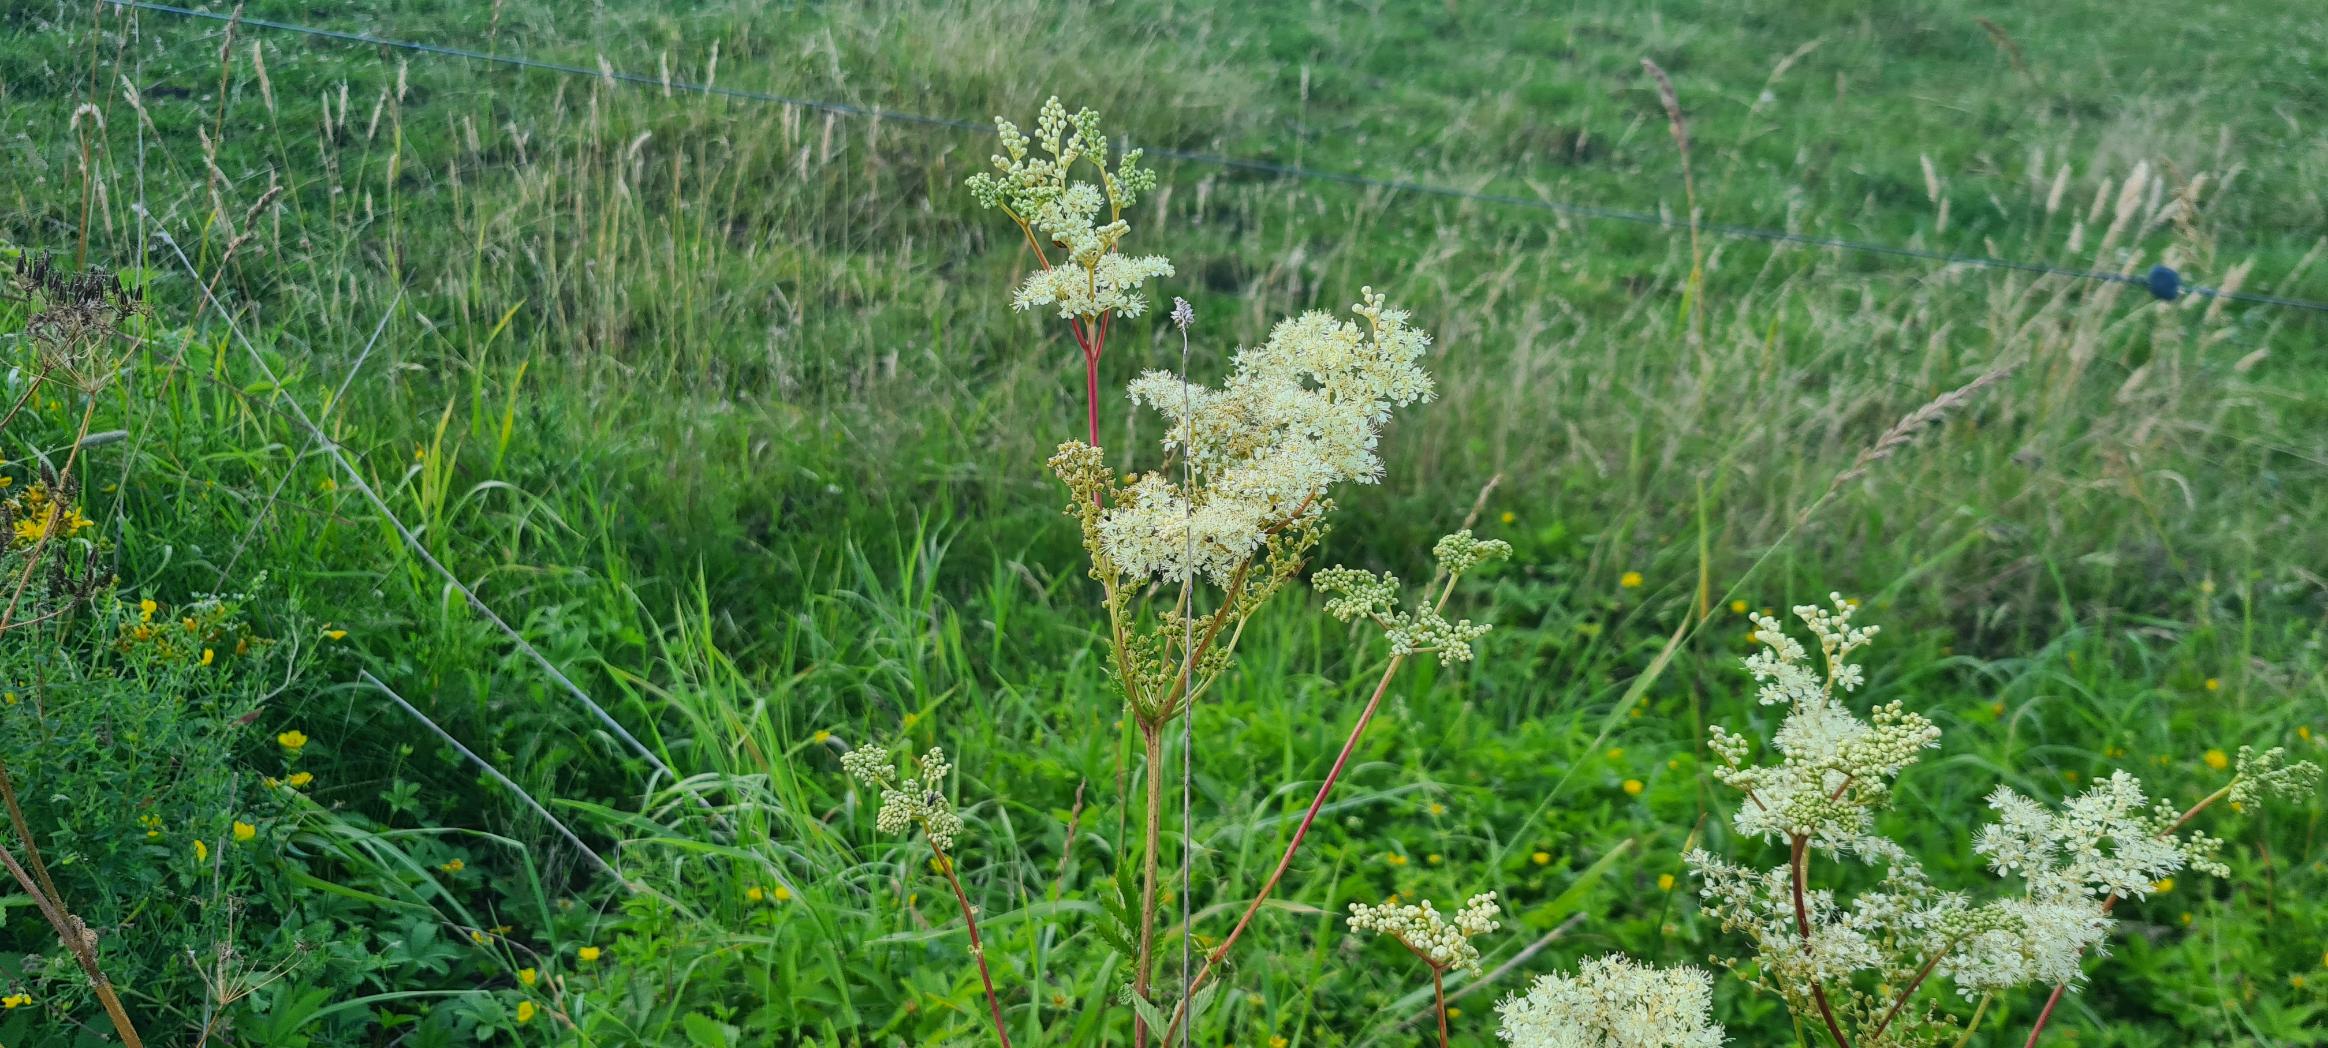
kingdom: Plantae
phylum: Tracheophyta
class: Magnoliopsida
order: Rosales
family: Rosaceae
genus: Filipendula
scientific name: Filipendula ulmaria
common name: Almindelig mjødurt
